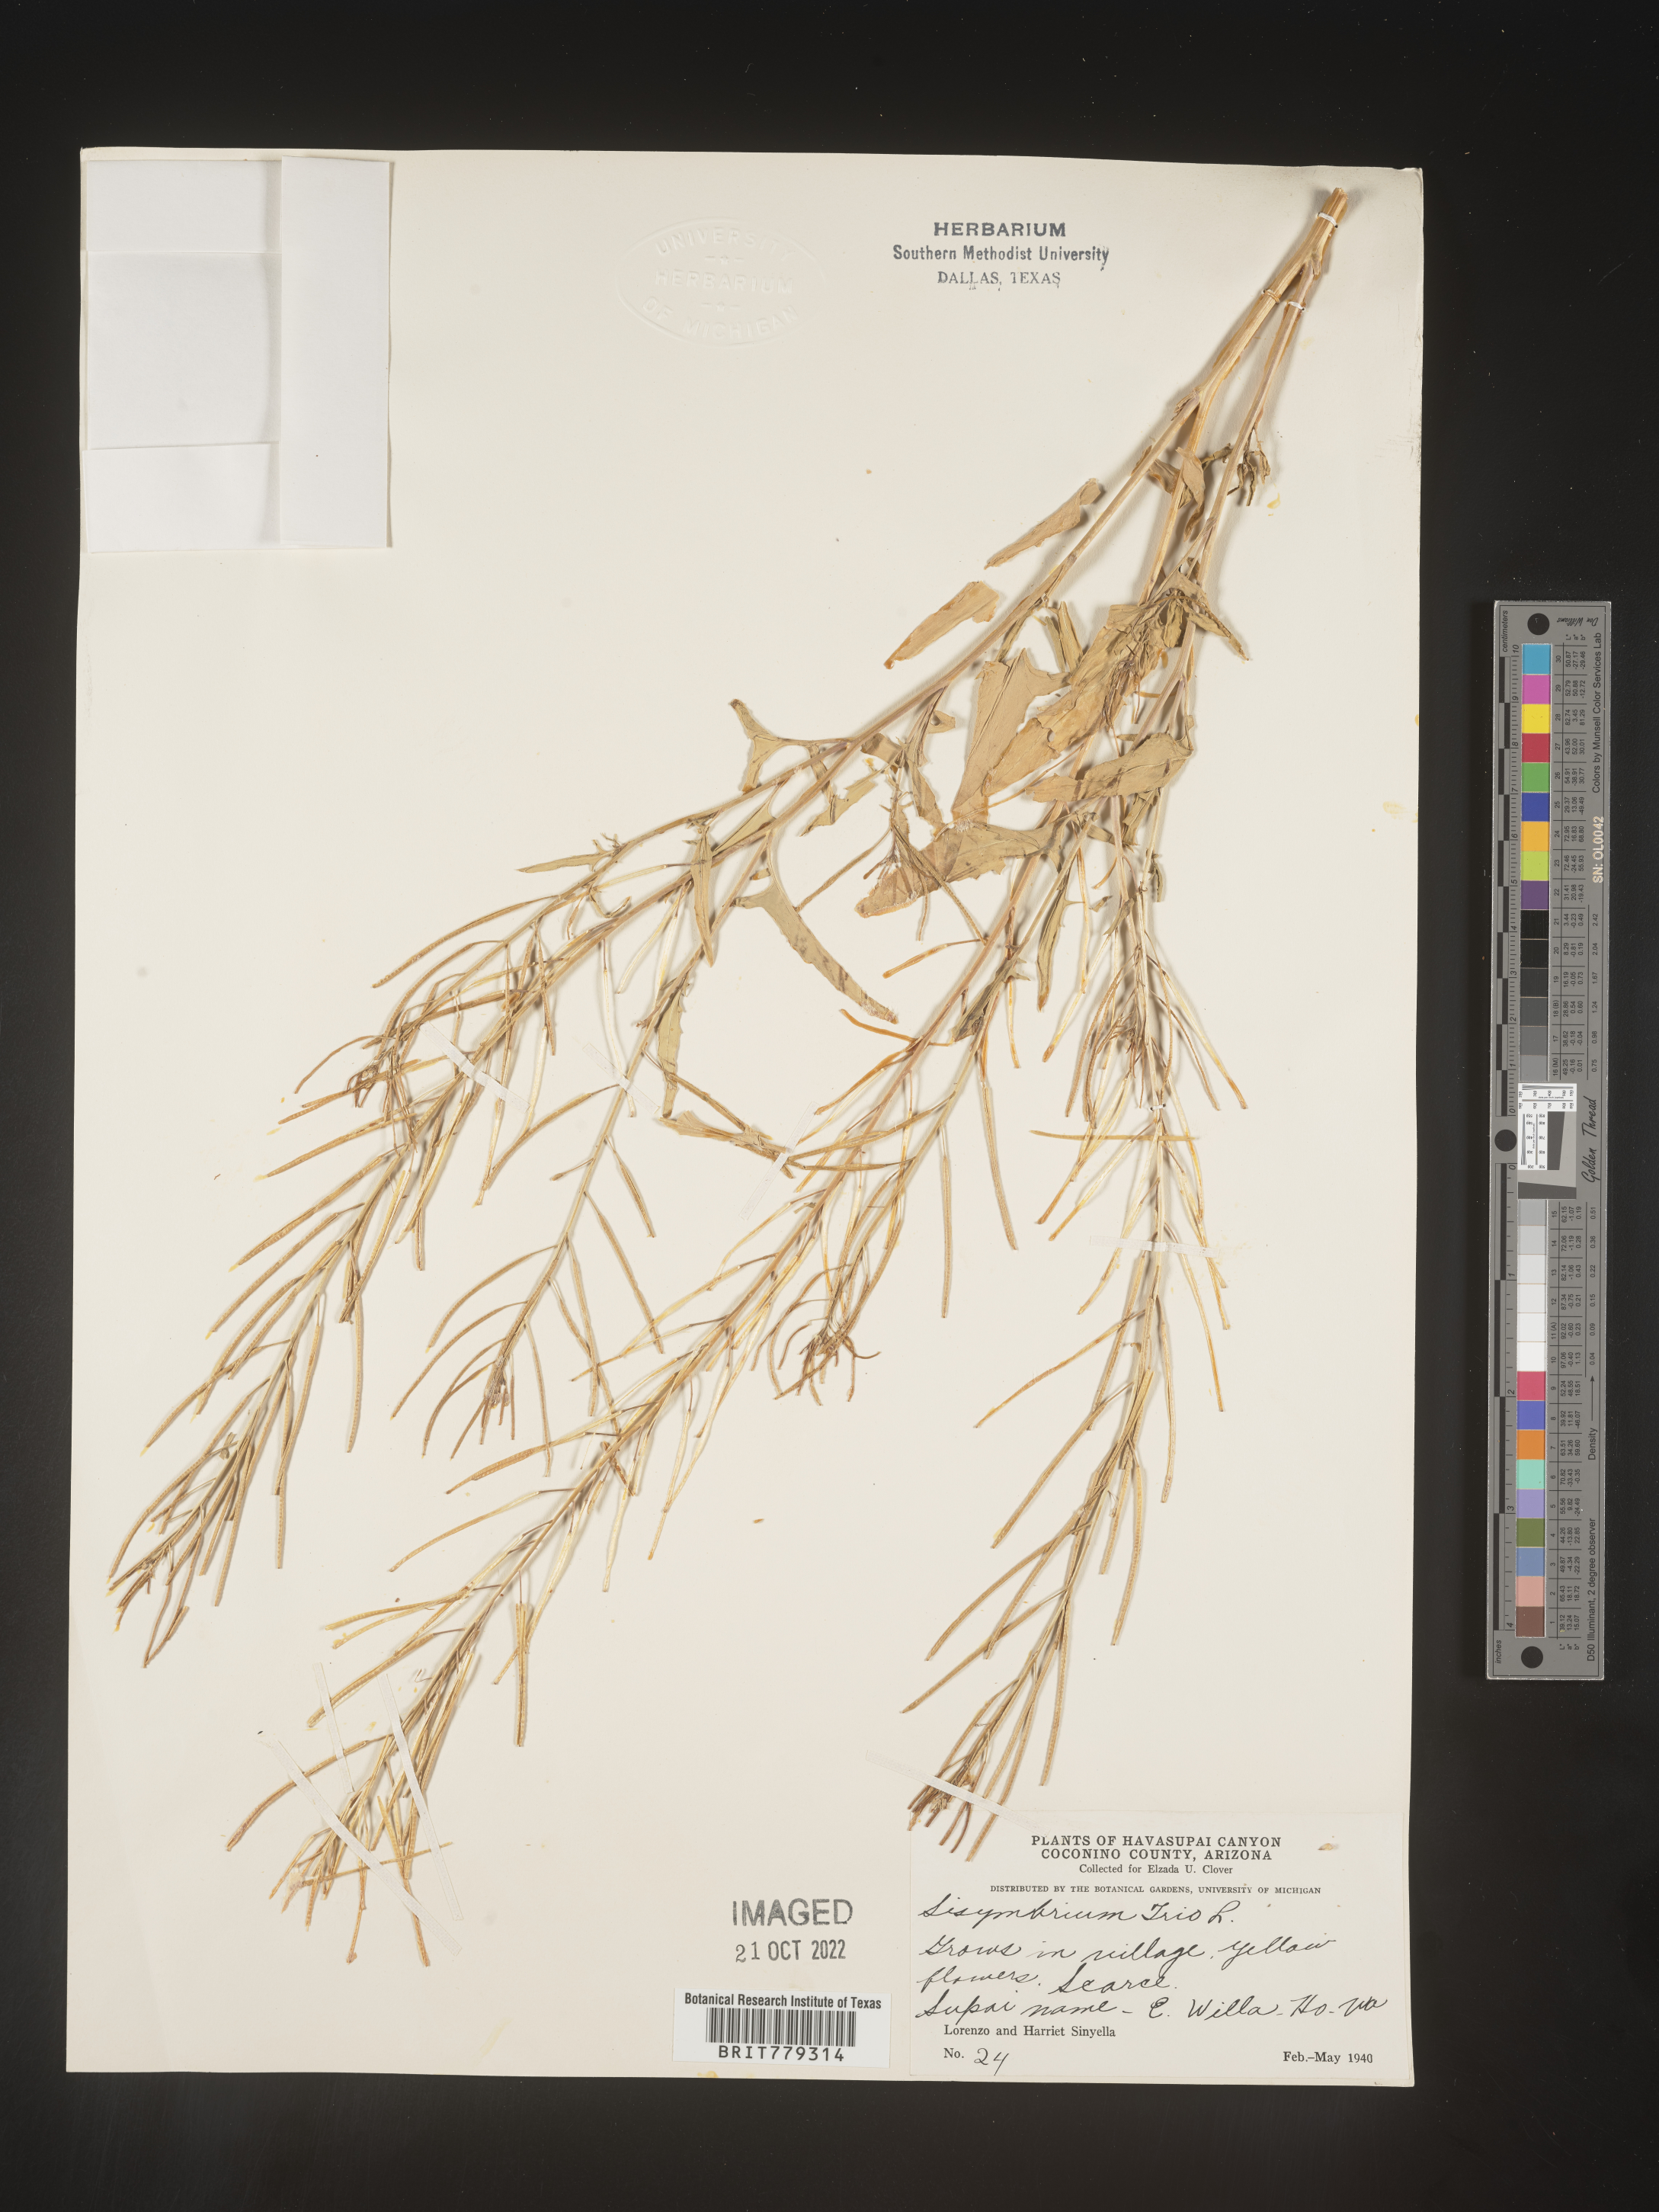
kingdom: Plantae
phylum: Tracheophyta
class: Magnoliopsida
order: Brassicales
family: Brassicaceae
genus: Sisymbrium
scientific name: Sisymbrium
